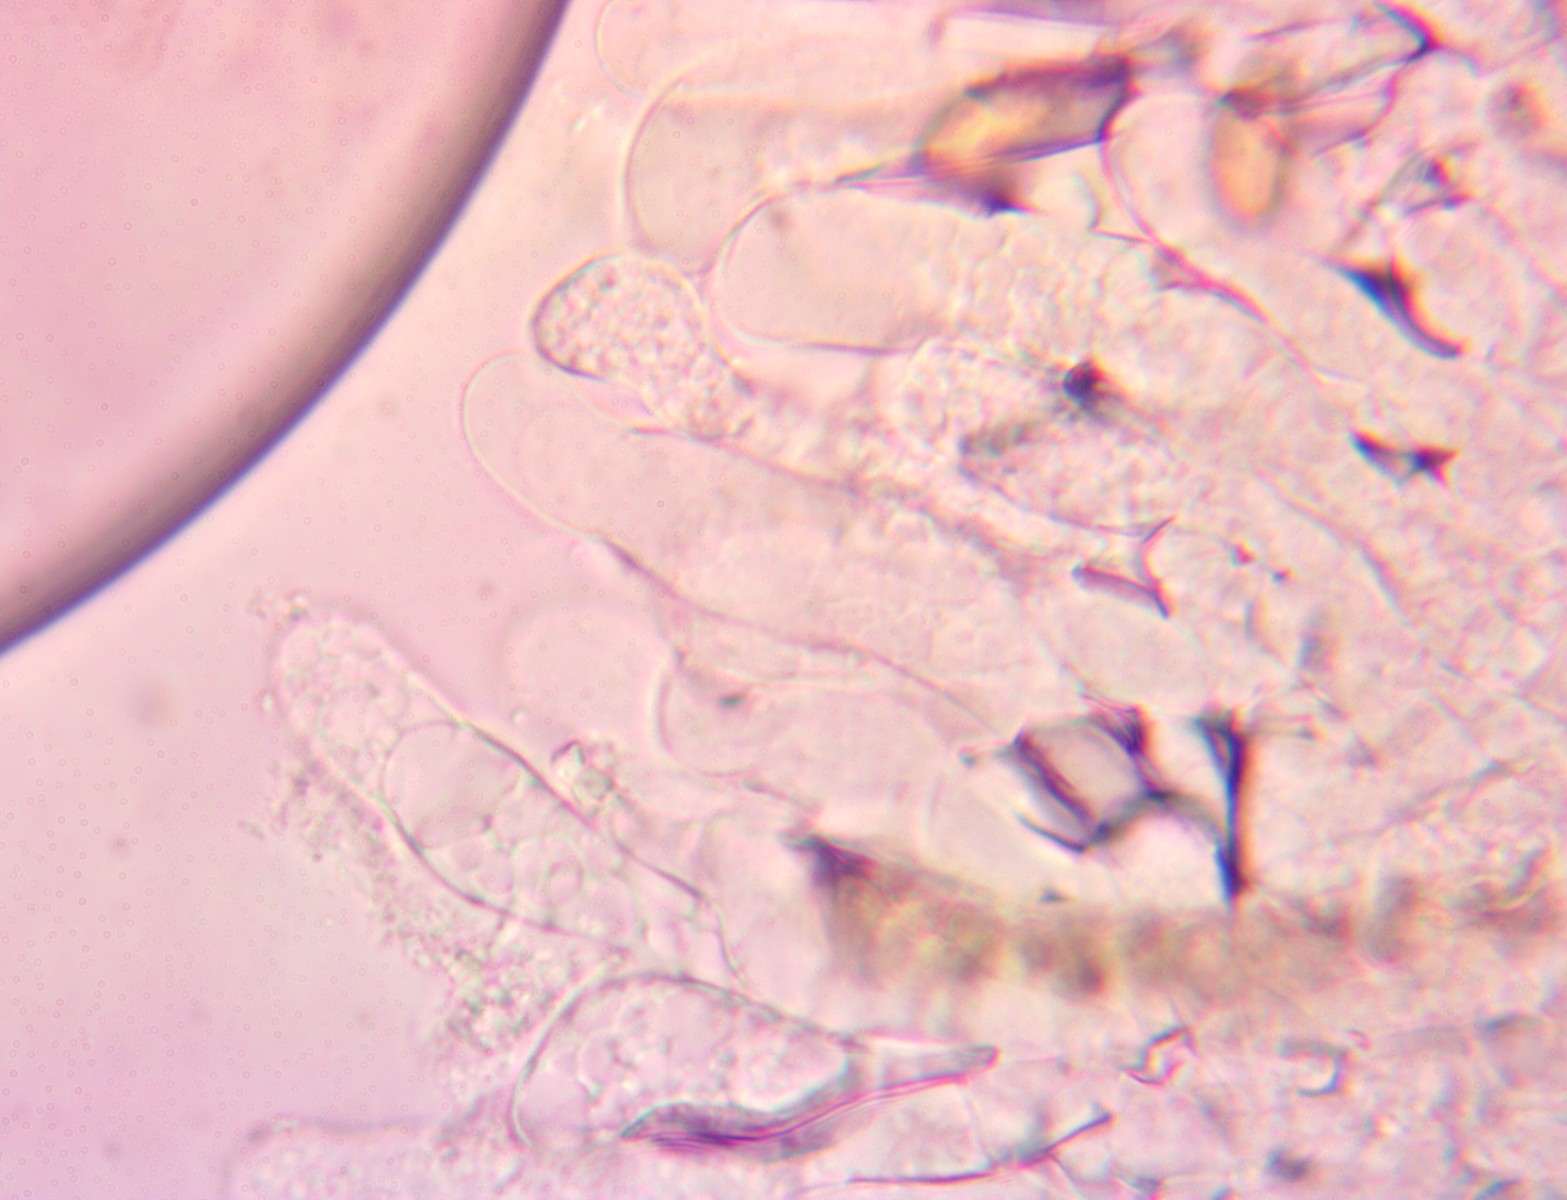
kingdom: Fungi
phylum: Basidiomycota
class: Agaricomycetes
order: Agaricales
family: Inocybaceae
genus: Inosperma
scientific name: Inosperma bongardii
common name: Bongards trævlhat
